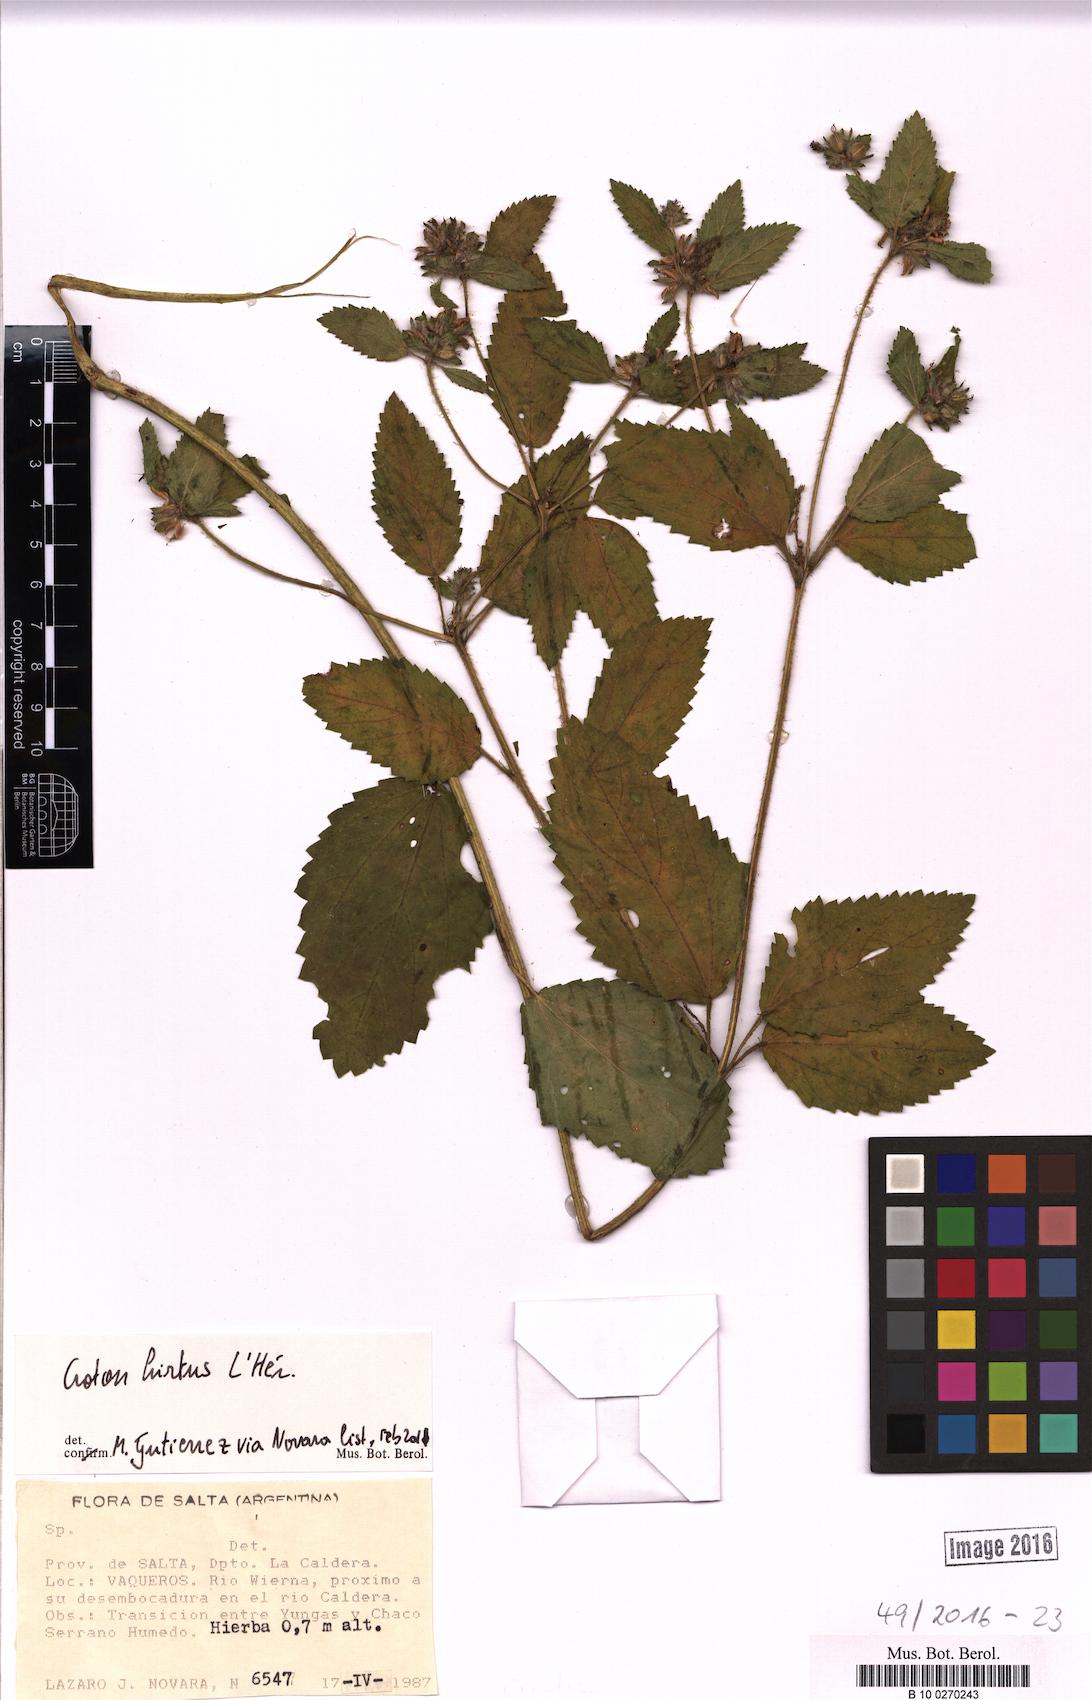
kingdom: Plantae
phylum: Tracheophyta
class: Magnoliopsida
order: Malpighiales
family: Euphorbiaceae
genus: Croton
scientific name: Croton hirtus
